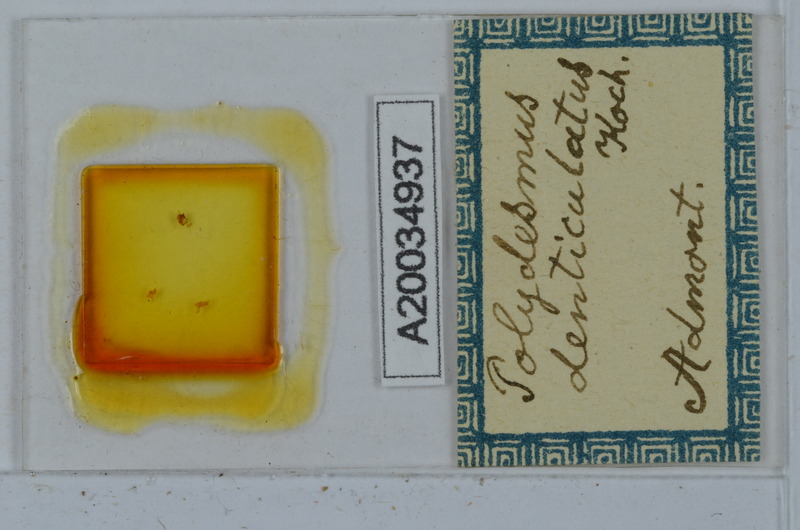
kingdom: Animalia
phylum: Arthropoda
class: Diplopoda
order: Polydesmida
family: Polydesmidae
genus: Polydesmus
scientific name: Polydesmus denticulatus
